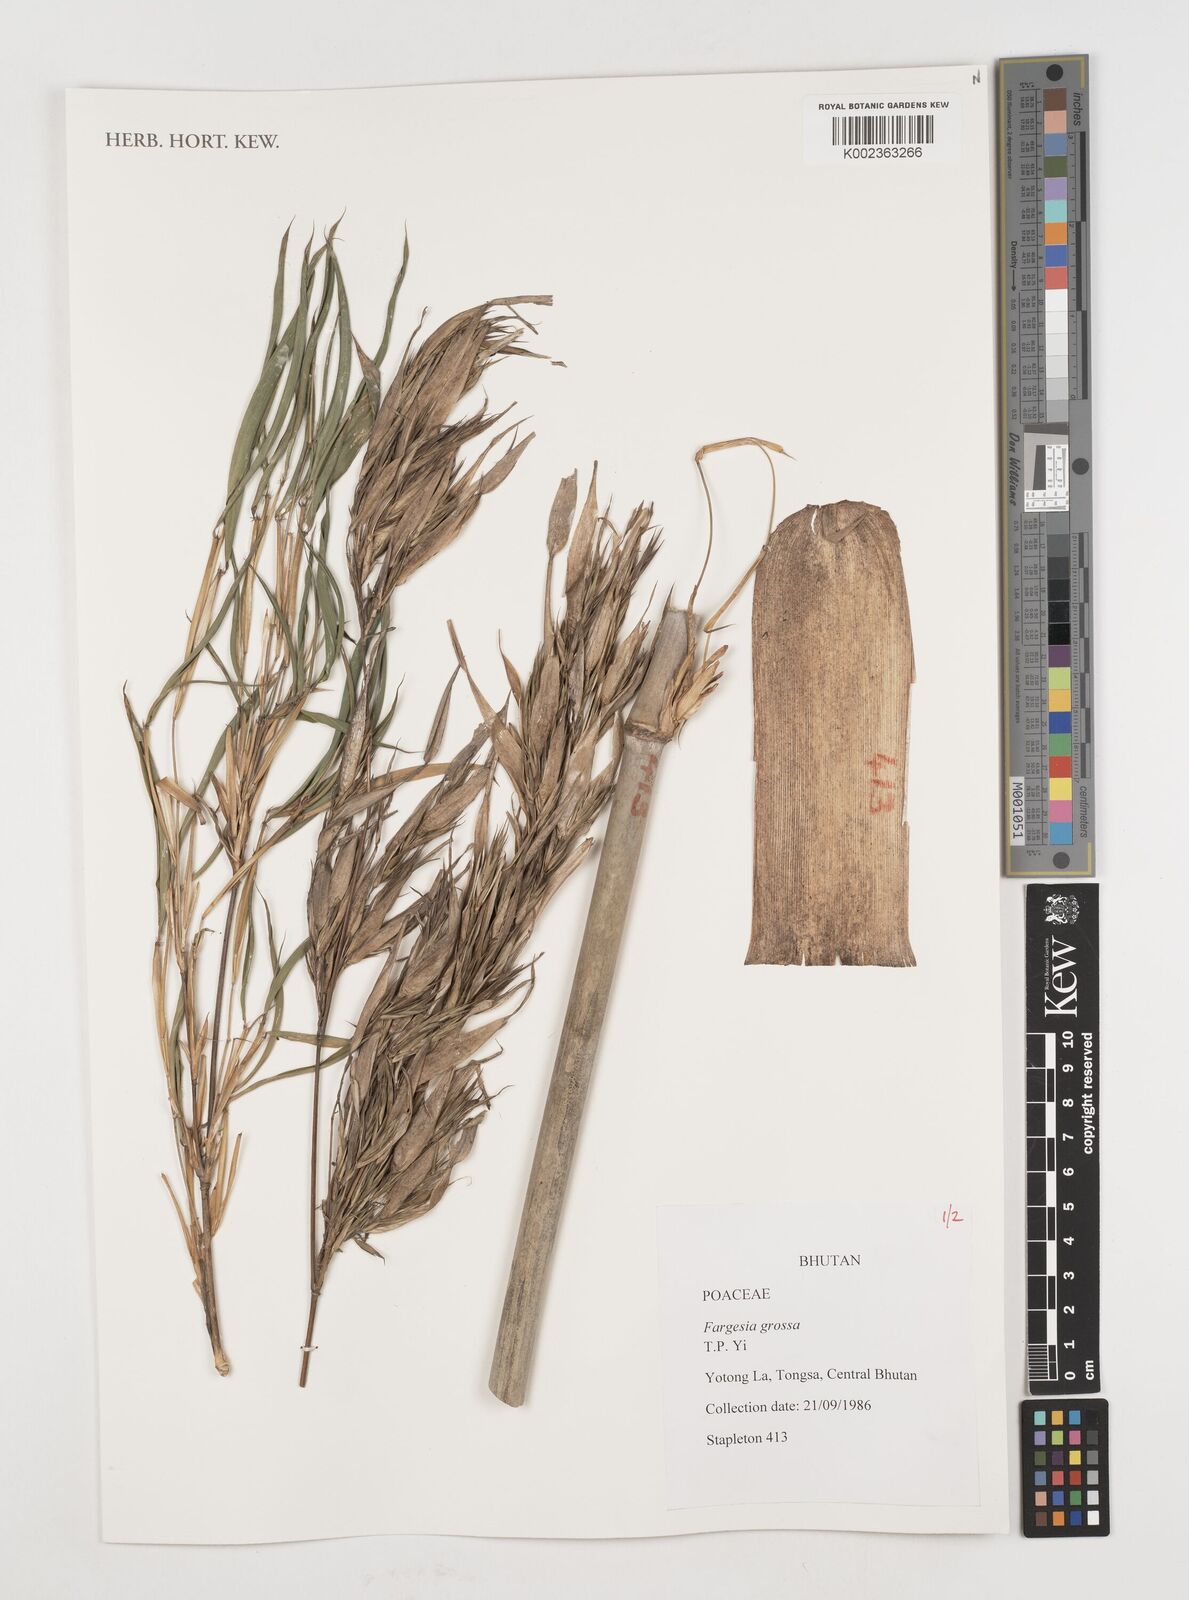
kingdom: Plantae
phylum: Tracheophyta
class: Liliopsida
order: Poales
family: Poaceae
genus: Borinda
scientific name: Borinda grossa
